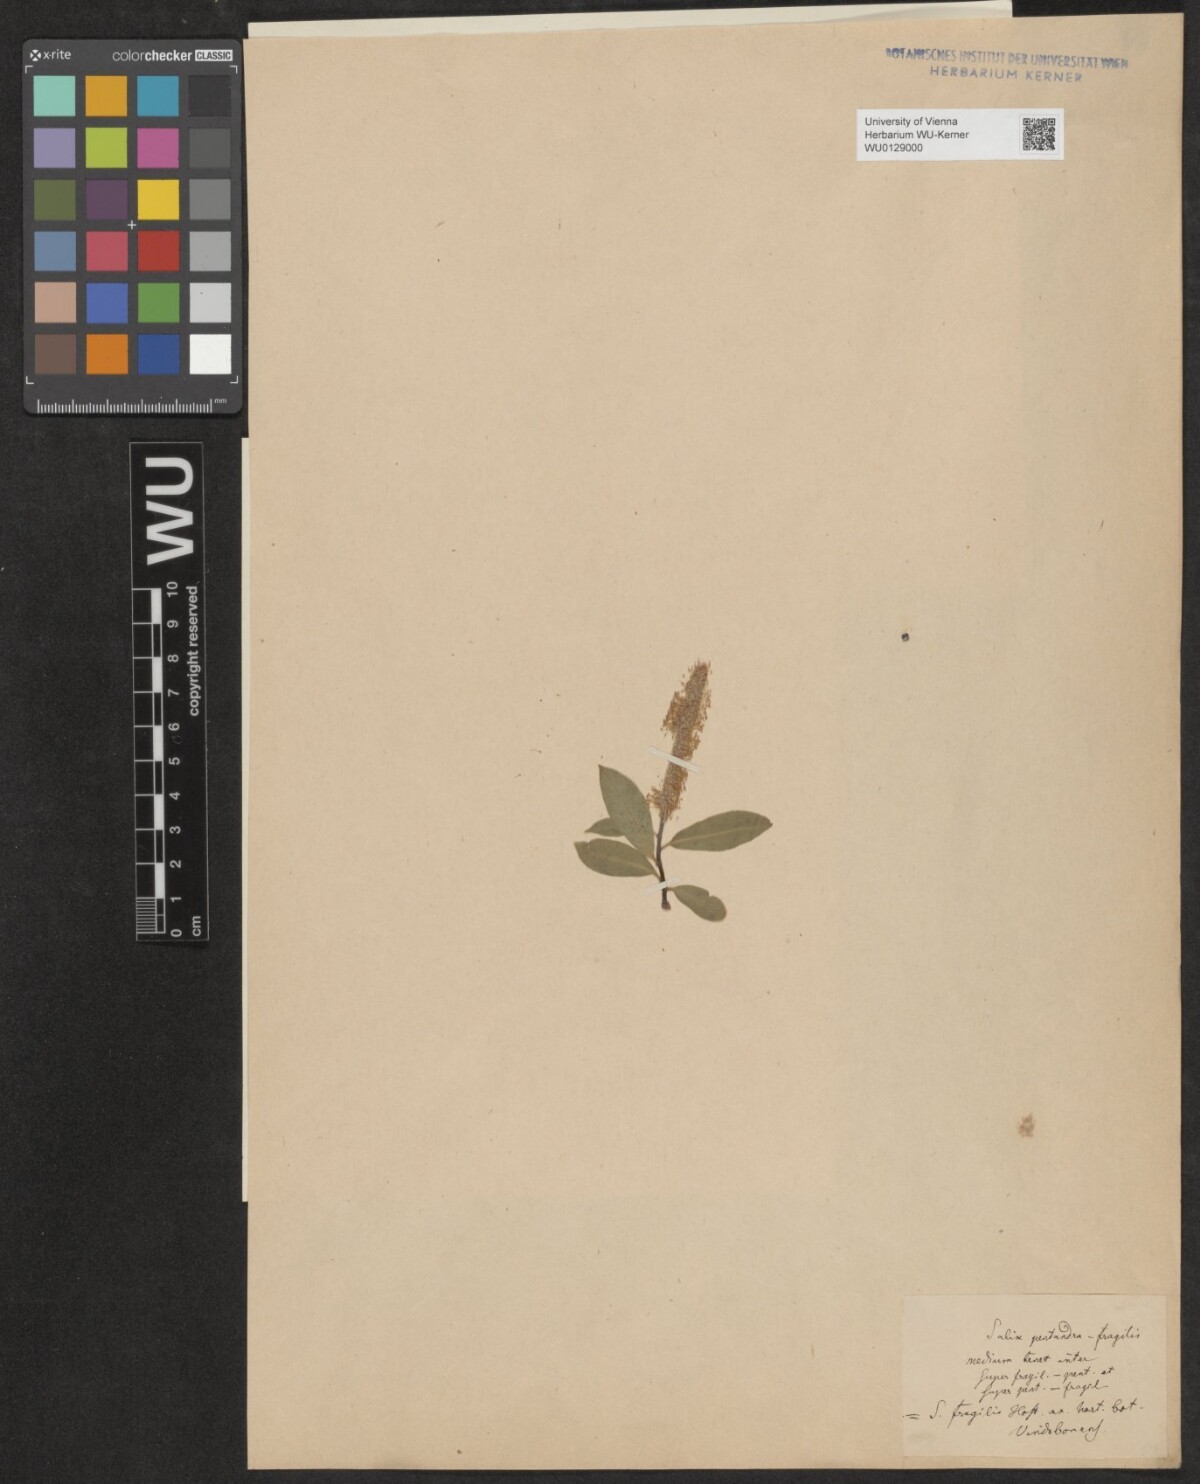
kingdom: Plantae
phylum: Tracheophyta
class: Magnoliopsida
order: Malpighiales
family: Salicaceae
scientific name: Salicaceae
